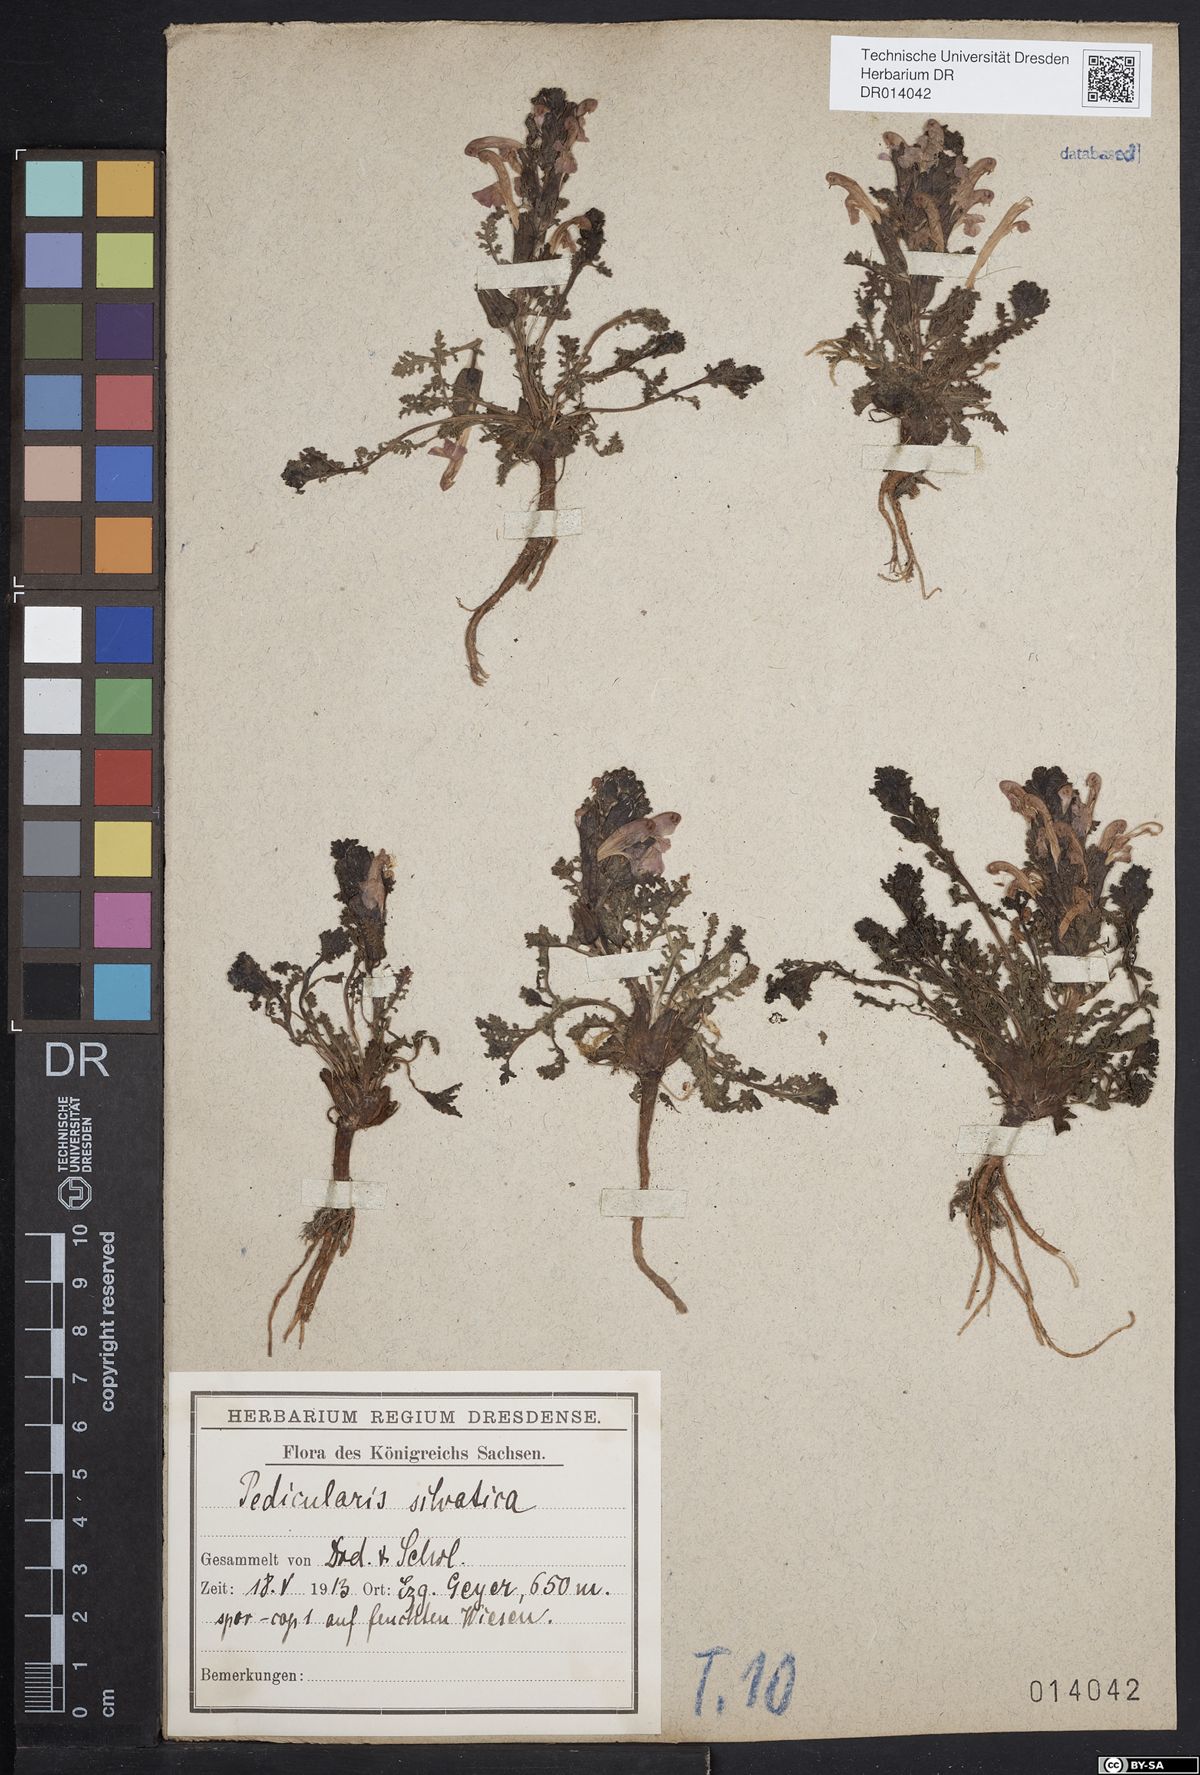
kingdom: Plantae
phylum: Tracheophyta
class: Magnoliopsida
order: Lamiales
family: Orobanchaceae
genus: Pedicularis
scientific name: Pedicularis sylvatica
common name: Lousewort
